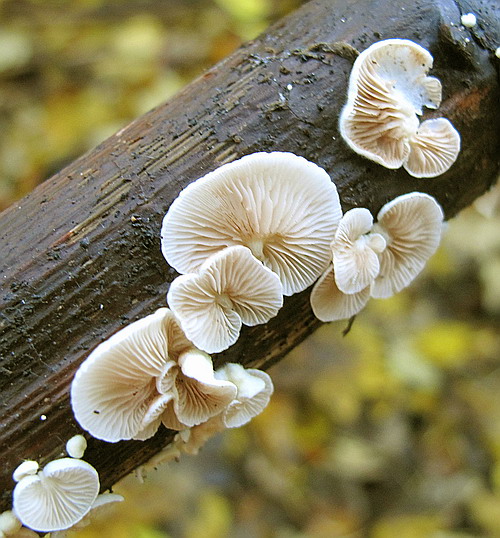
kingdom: Fungi
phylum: Basidiomycota
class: Agaricomycetes
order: Agaricales
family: Crepidotaceae
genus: Crepidotus
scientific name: Crepidotus luteolus
